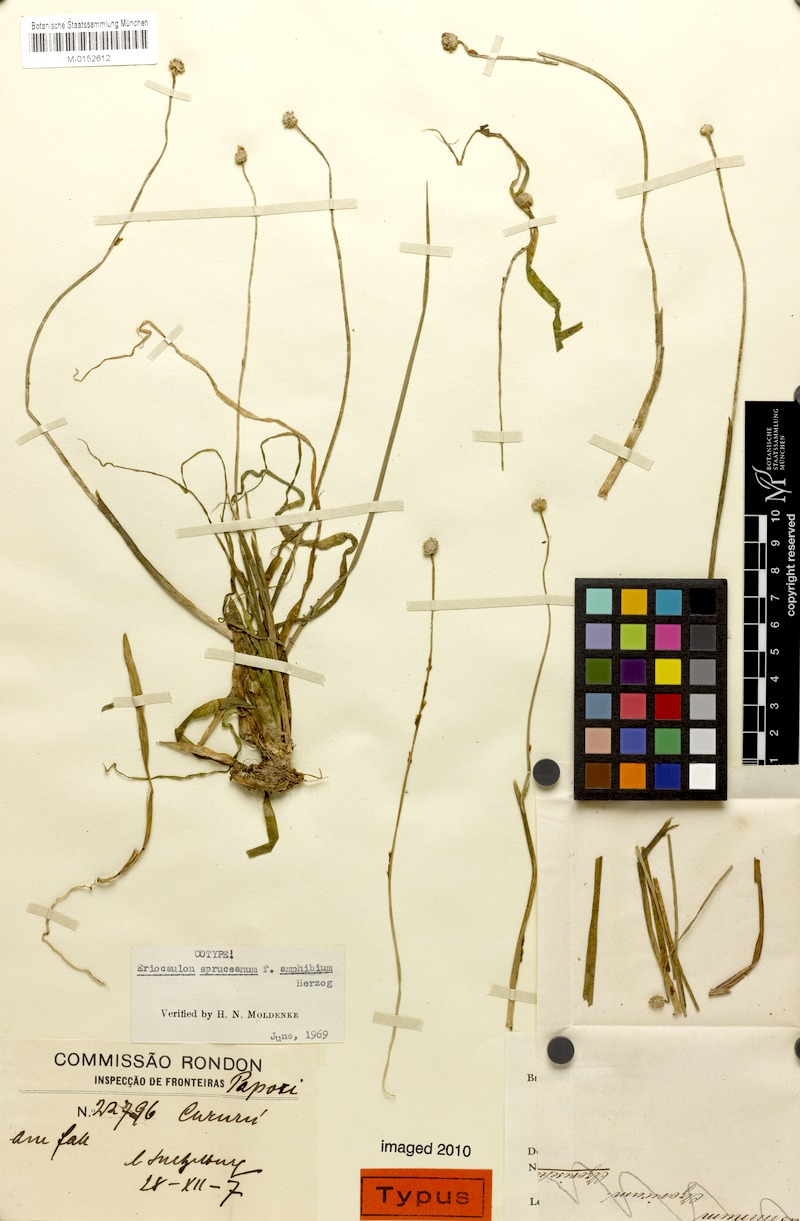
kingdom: Plantae
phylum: Tracheophyta
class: Liliopsida
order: Poales
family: Eriocaulaceae
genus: Eriocaulon
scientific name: Eriocaulon spruceanum
